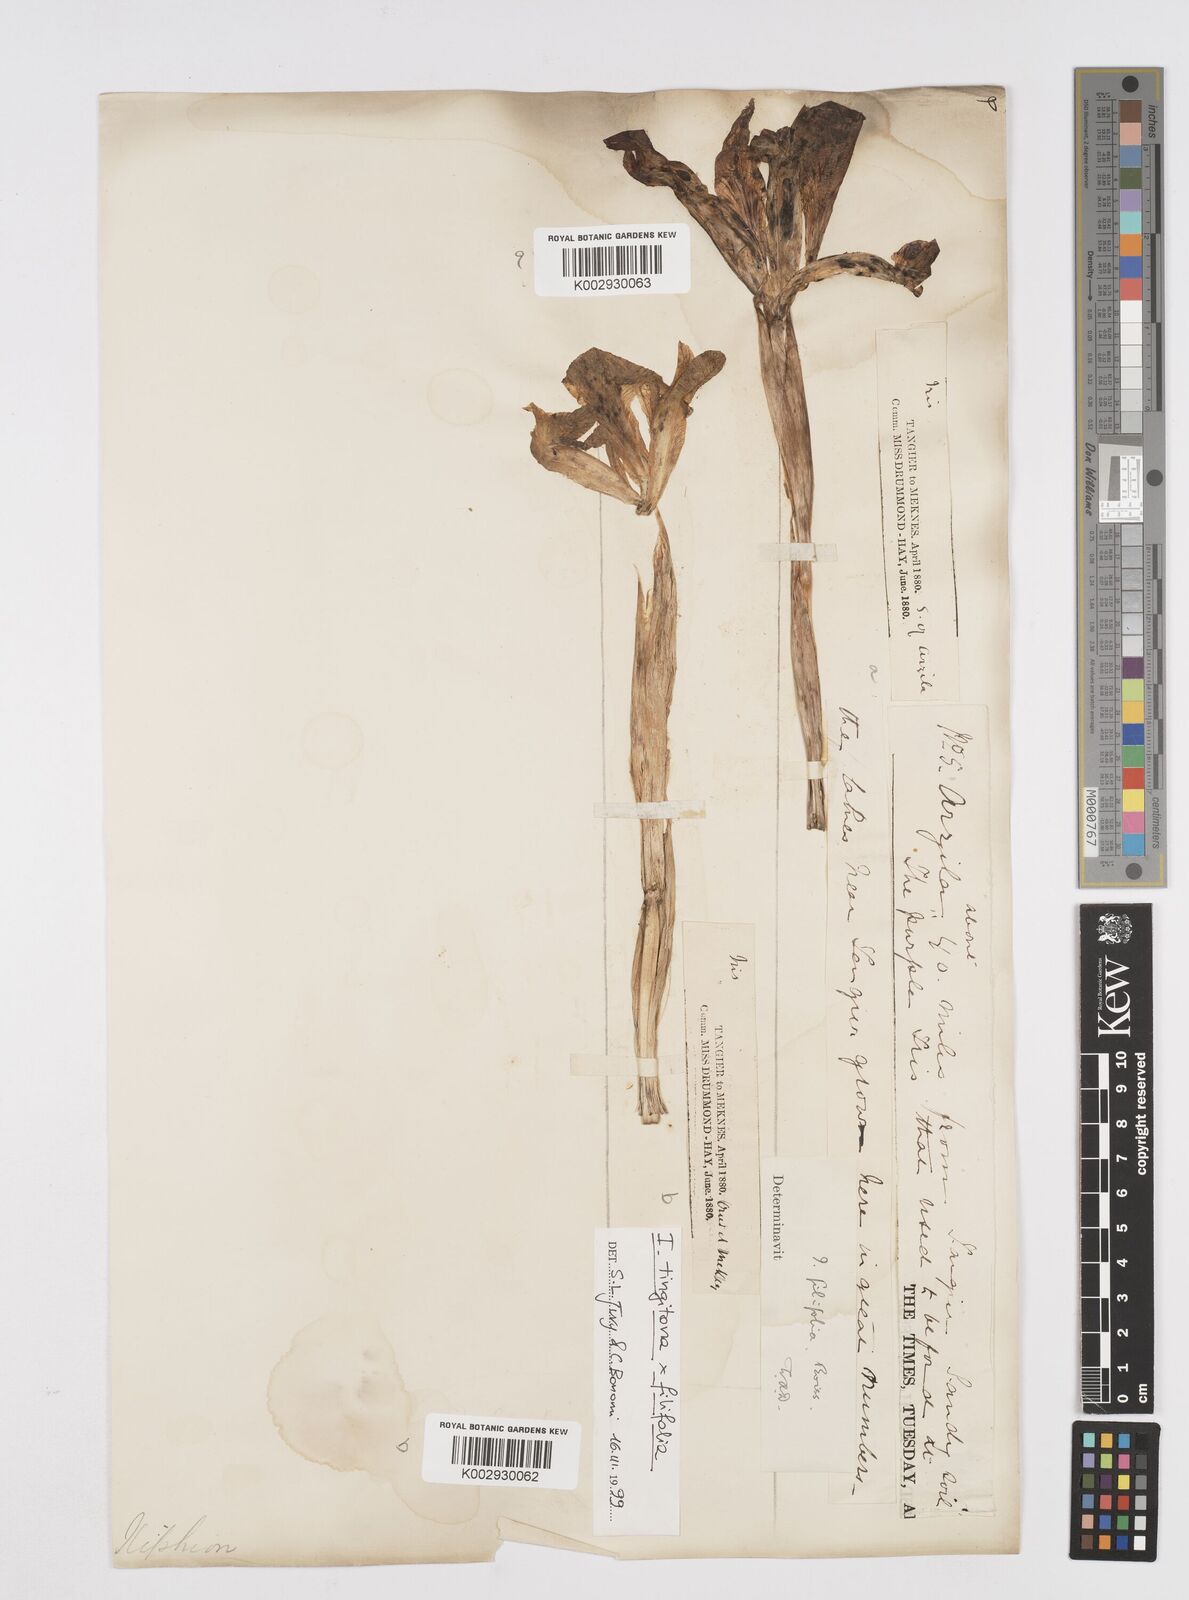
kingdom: Plantae
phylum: Tracheophyta
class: Liliopsida
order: Asparagales
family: Iridaceae
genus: Iris
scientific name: Iris filifolia
